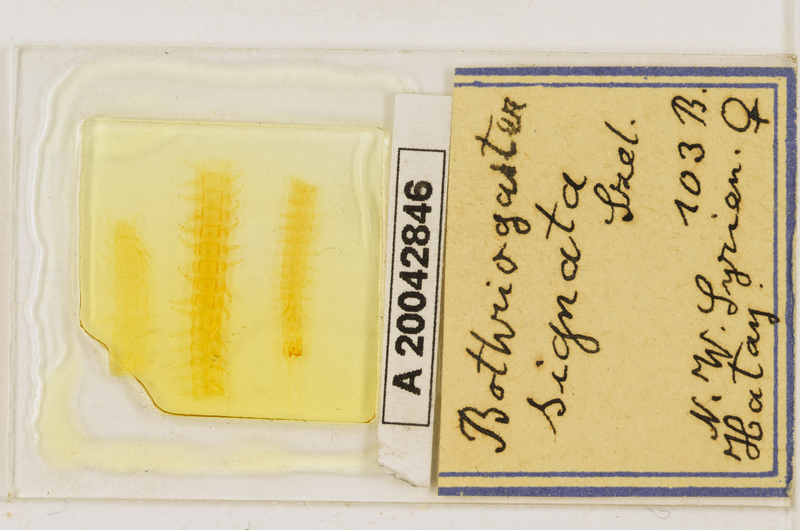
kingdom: Animalia
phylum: Arthropoda
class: Chilopoda
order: Geophilomorpha
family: Himantariidae
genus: Bothriogaster
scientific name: Bothriogaster signata
